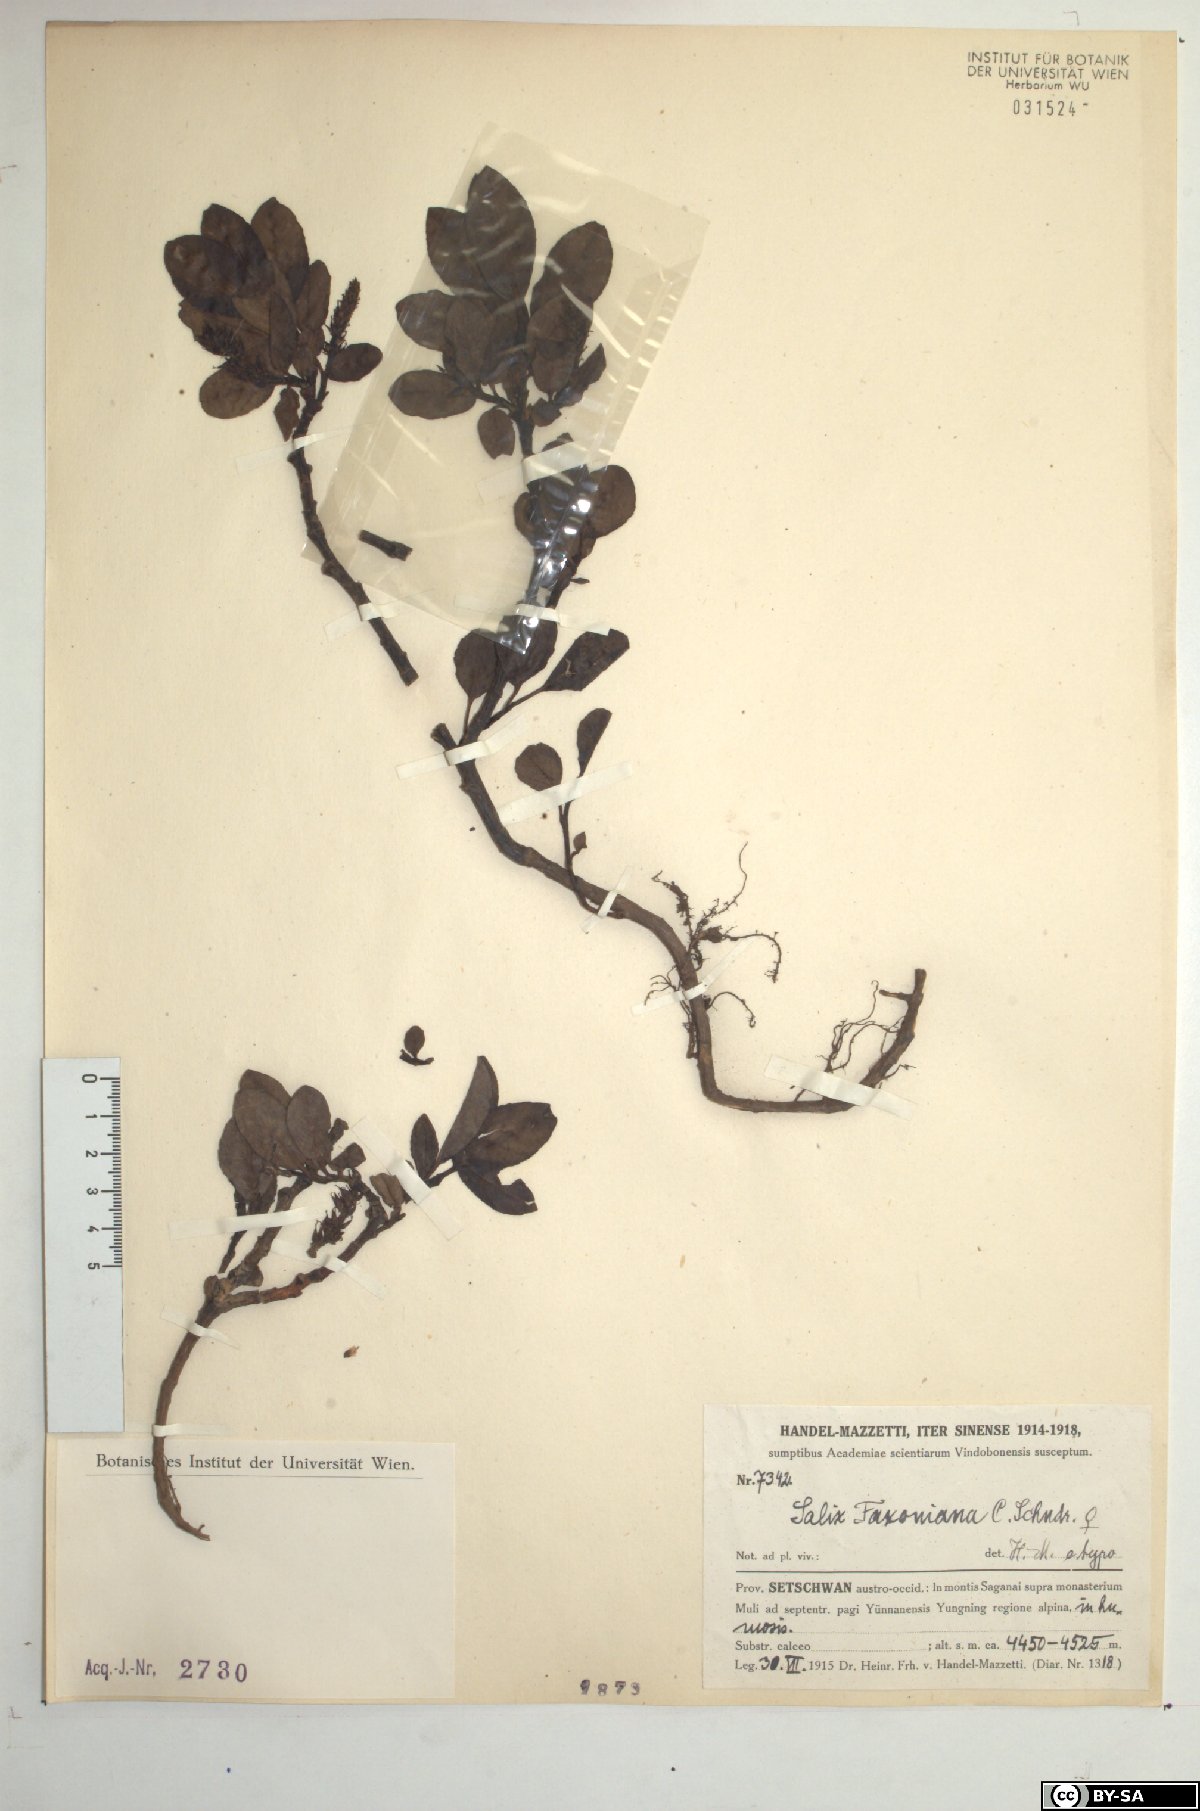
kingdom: Plantae
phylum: Tracheophyta
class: Magnoliopsida
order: Malpighiales
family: Salicaceae
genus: Salix
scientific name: Salix opsimantha
